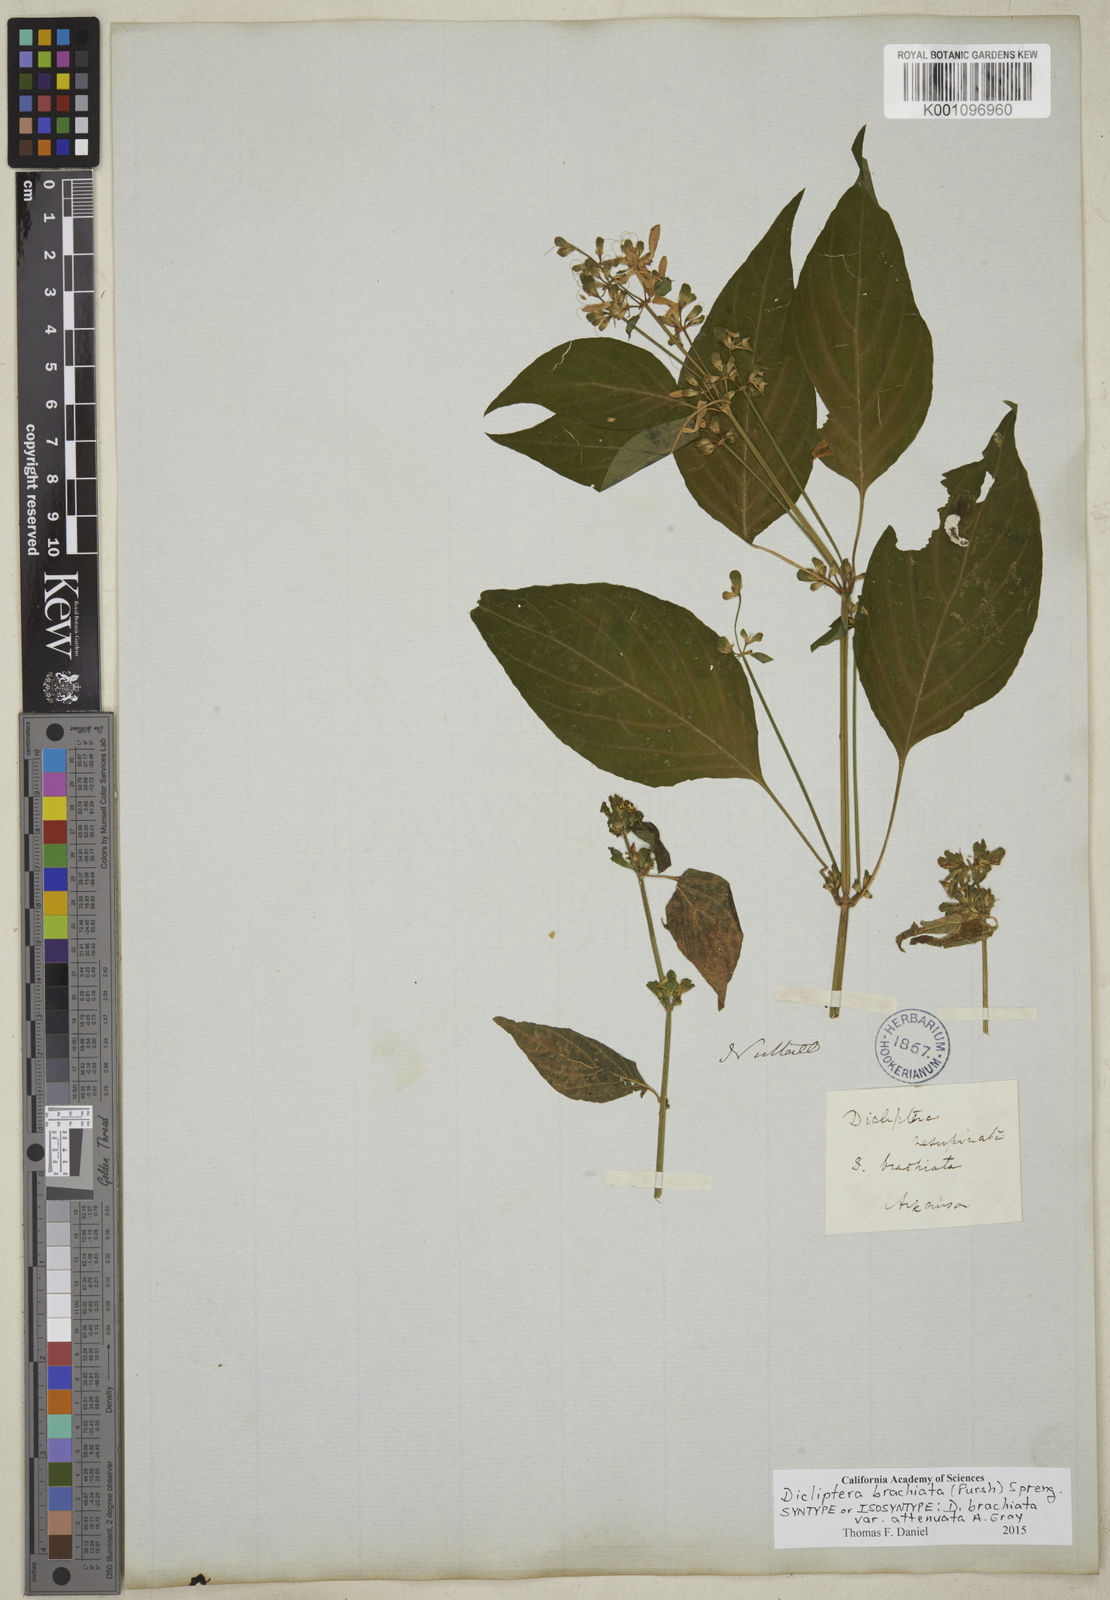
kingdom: Plantae
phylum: Tracheophyta
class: Magnoliopsida
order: Lamiales
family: Acanthaceae
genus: Dicliptera
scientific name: Dicliptera brachiata
